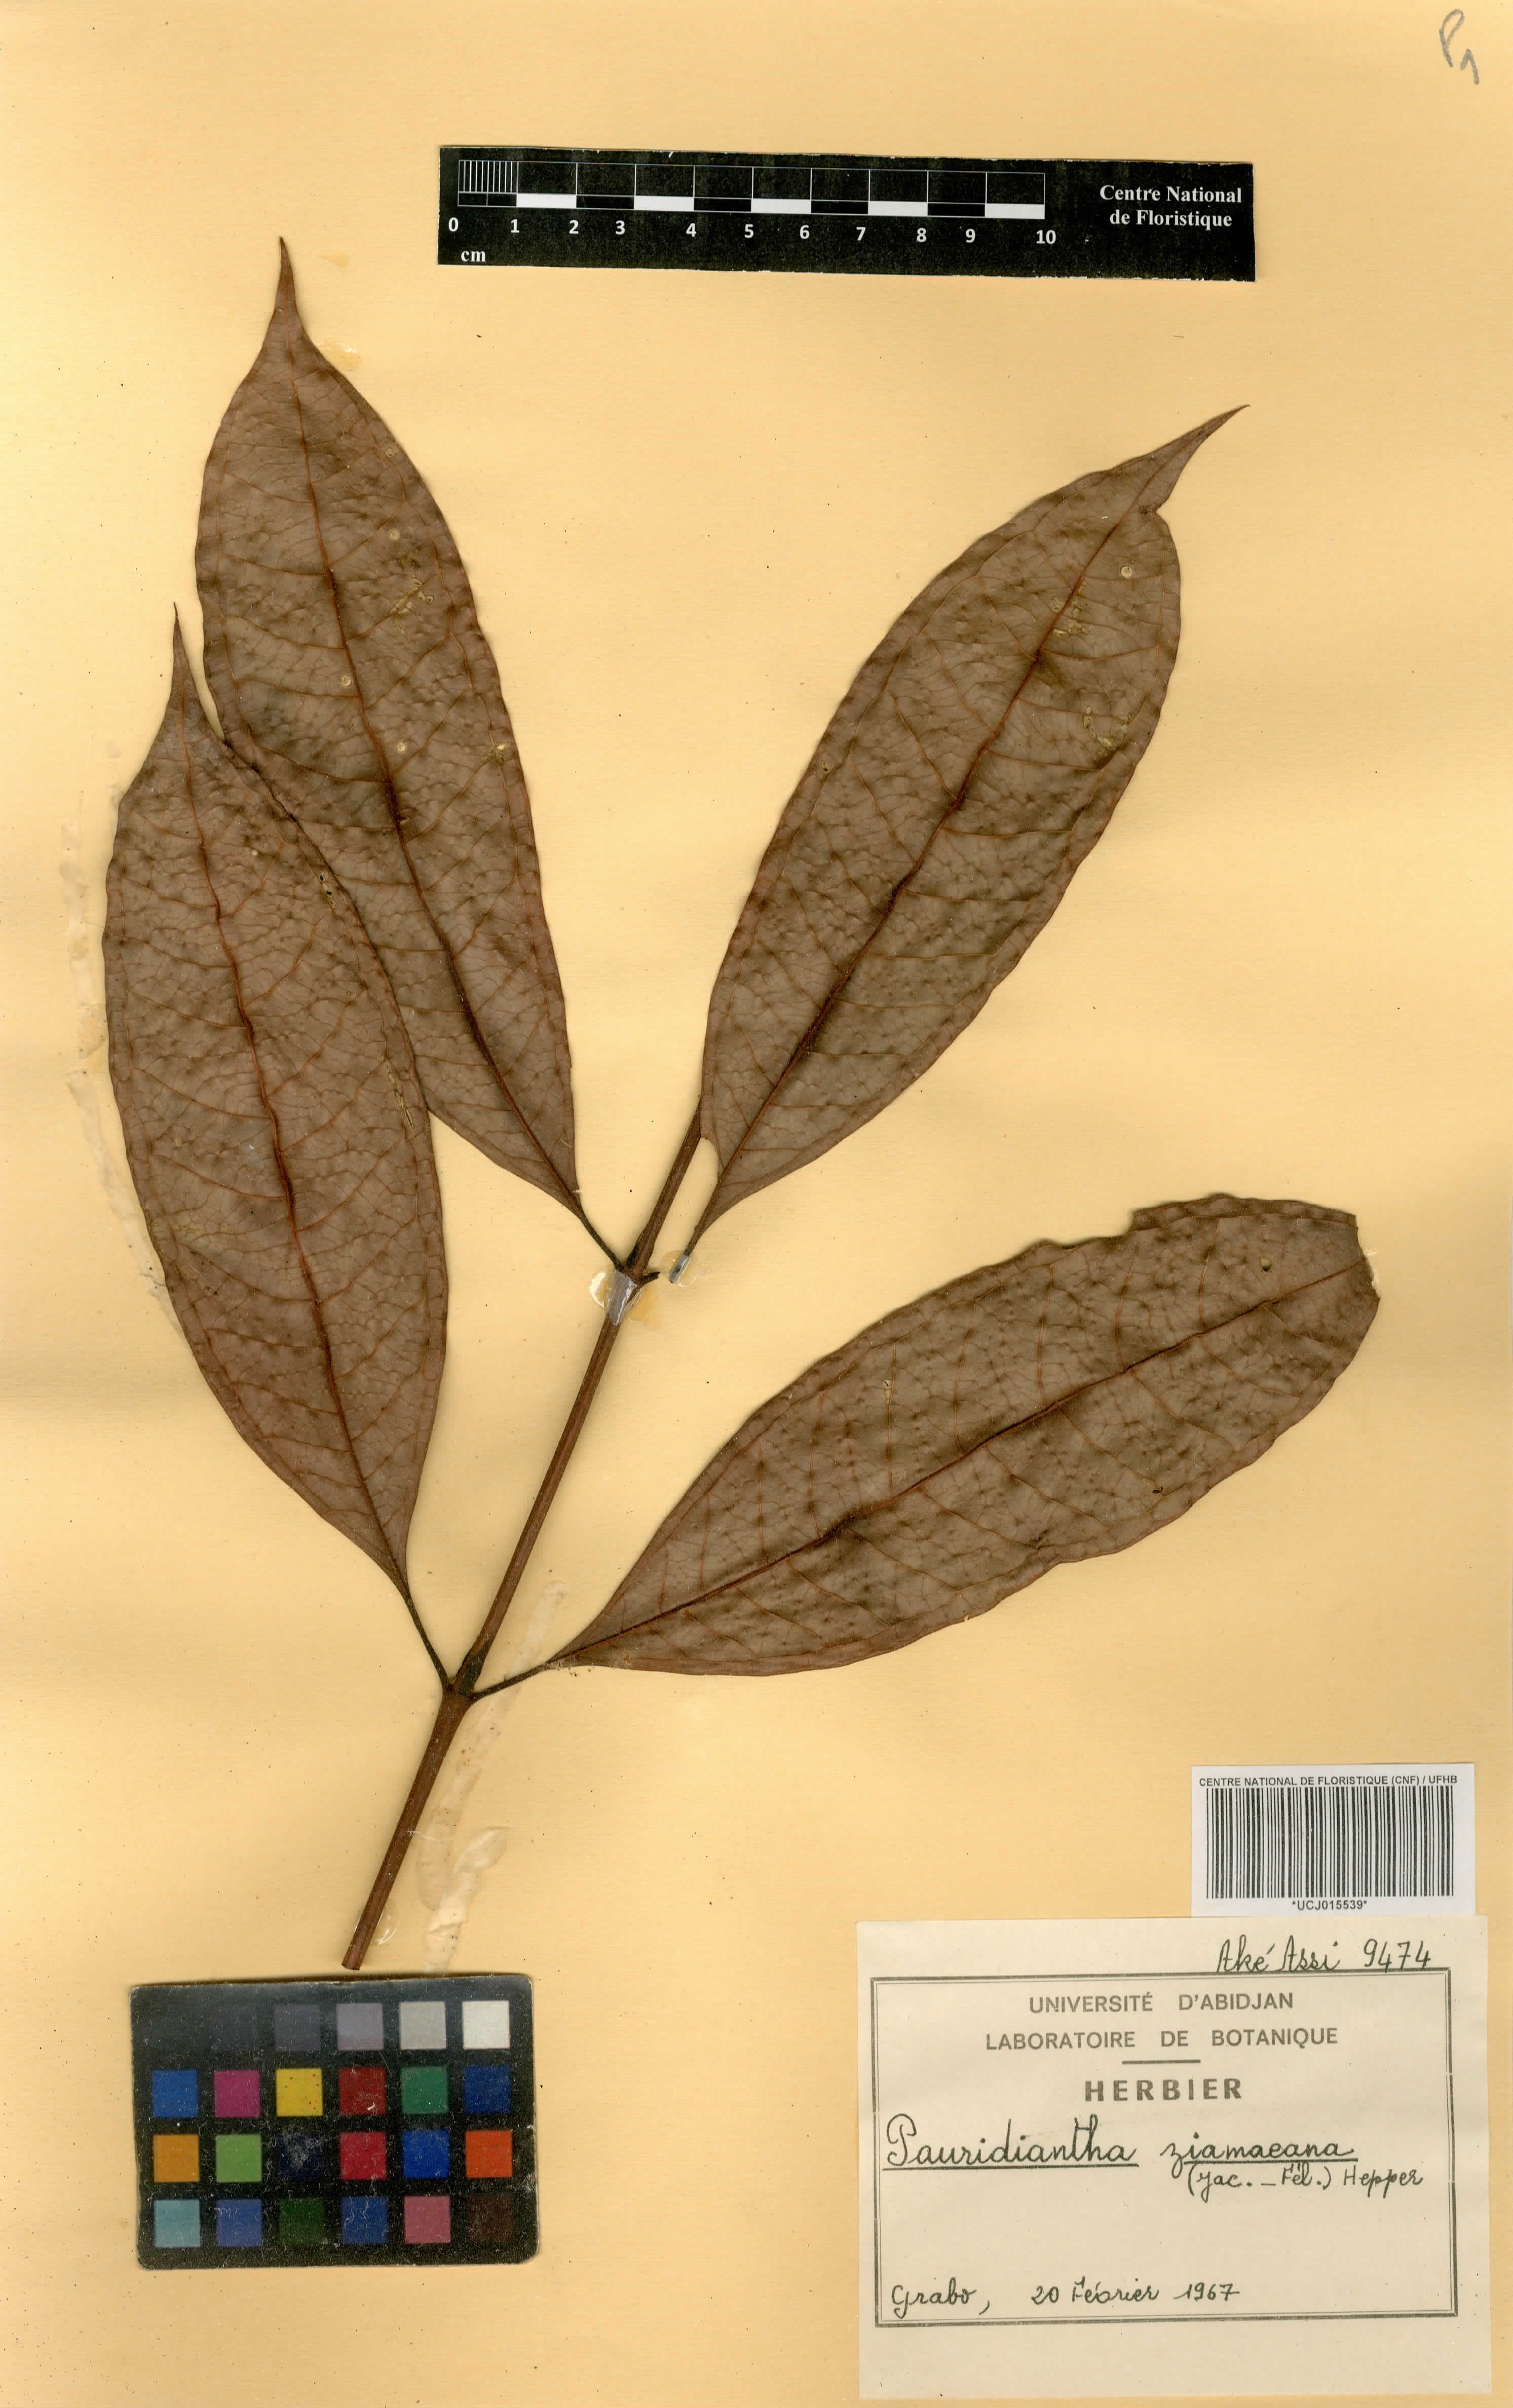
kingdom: Plantae
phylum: Tracheophyta
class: Magnoliopsida
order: Gentianales
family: Rubiaceae
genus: Pauridiantha
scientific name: Pauridiantha ziamaeana
